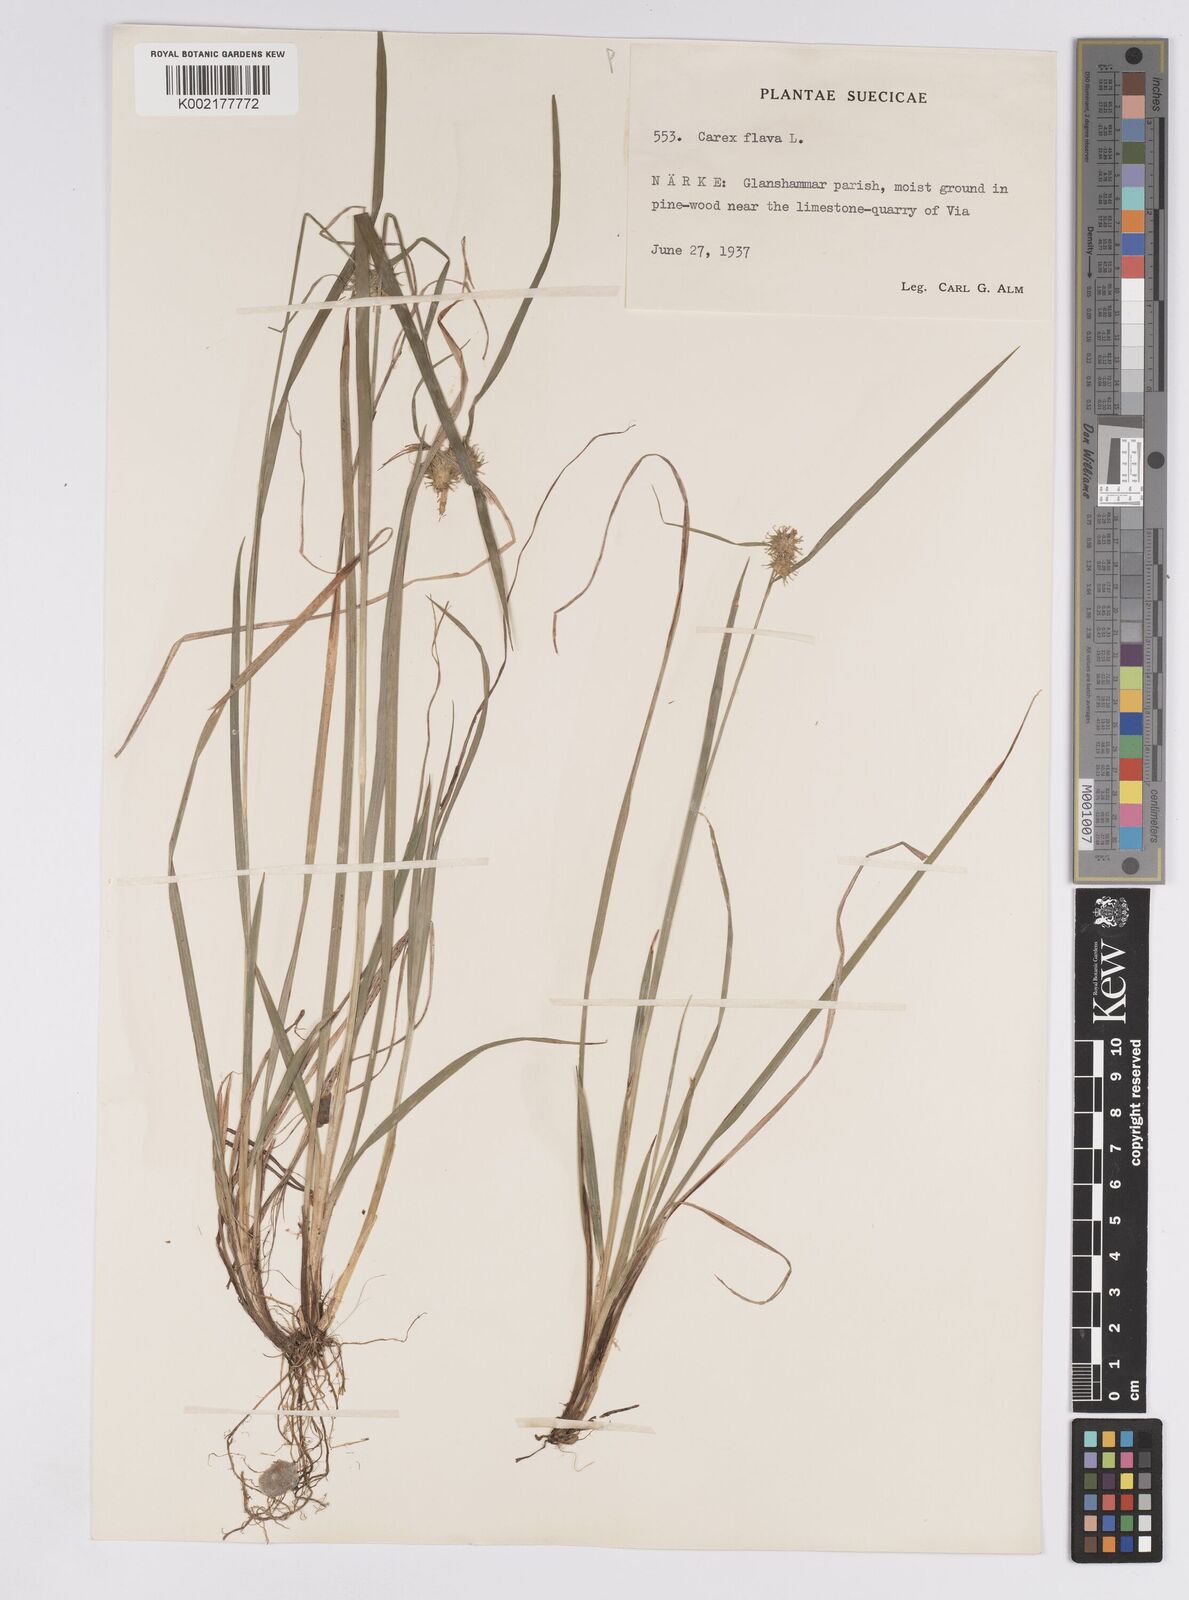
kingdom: Plantae
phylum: Tracheophyta
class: Liliopsida
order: Poales
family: Cyperaceae
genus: Carex
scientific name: Carex flava
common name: Large yellow-sedge
